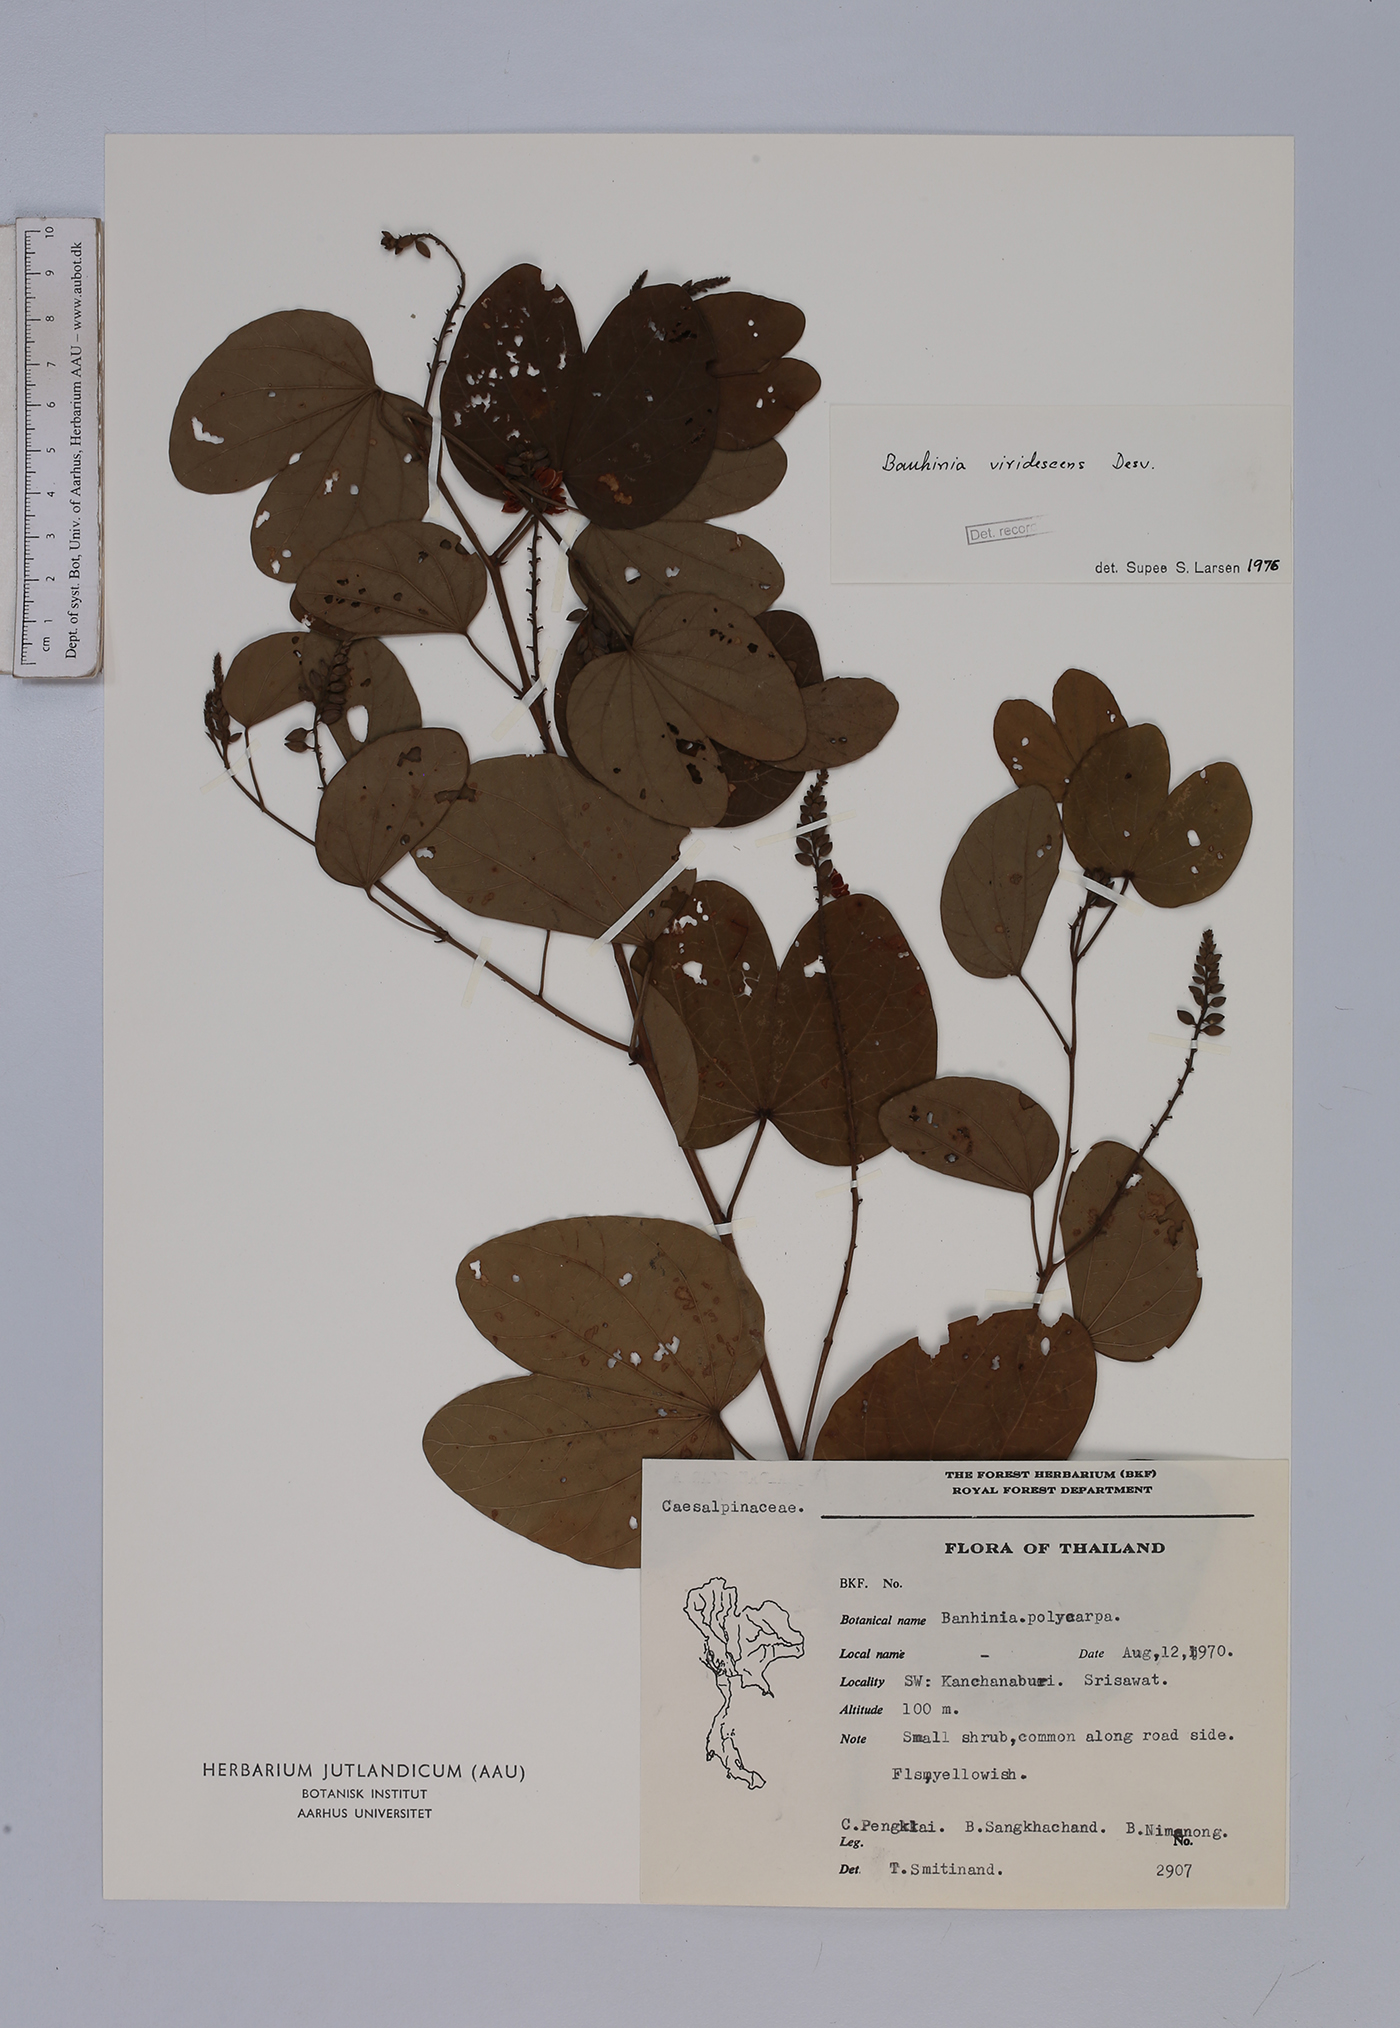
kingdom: Plantae
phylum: Tracheophyta
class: Magnoliopsida
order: Fabales
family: Fabaceae
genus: Bauhinia
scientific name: Bauhinia viridescens
